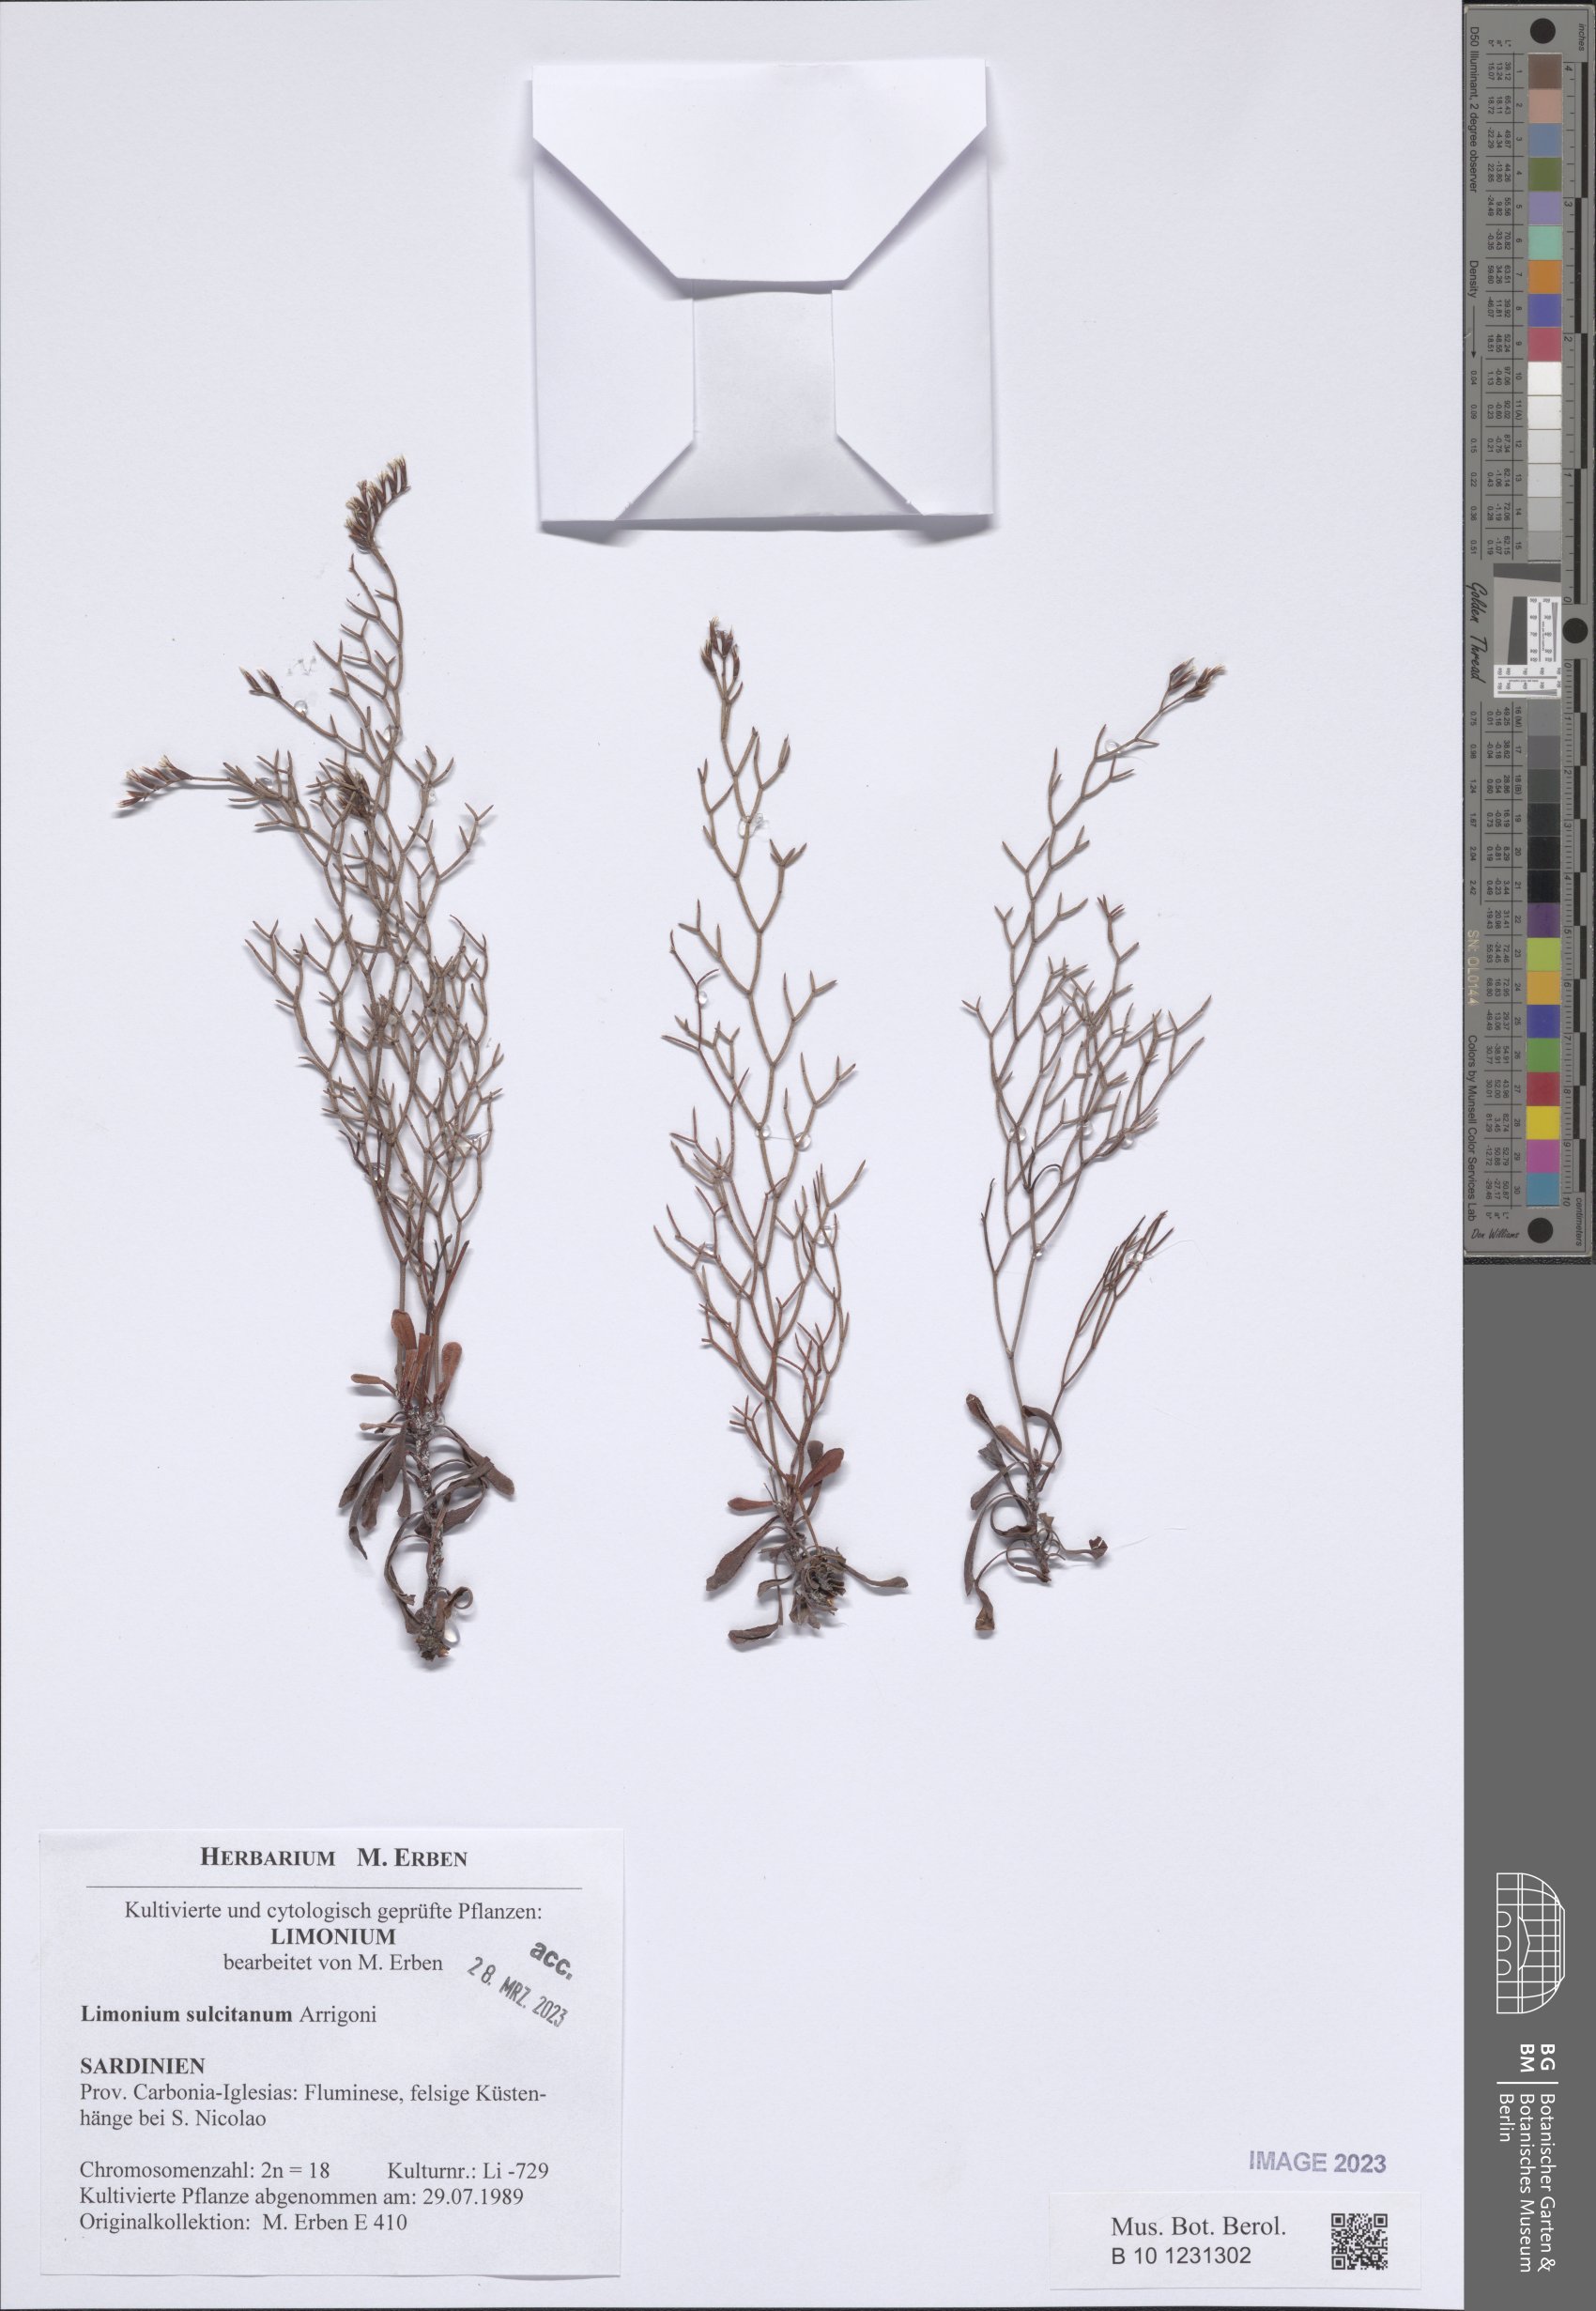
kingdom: Plantae
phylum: Tracheophyta
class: Magnoliopsida
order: Caryophyllales
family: Plumbaginaceae
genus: Limonium
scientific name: Limonium sulcitanum
